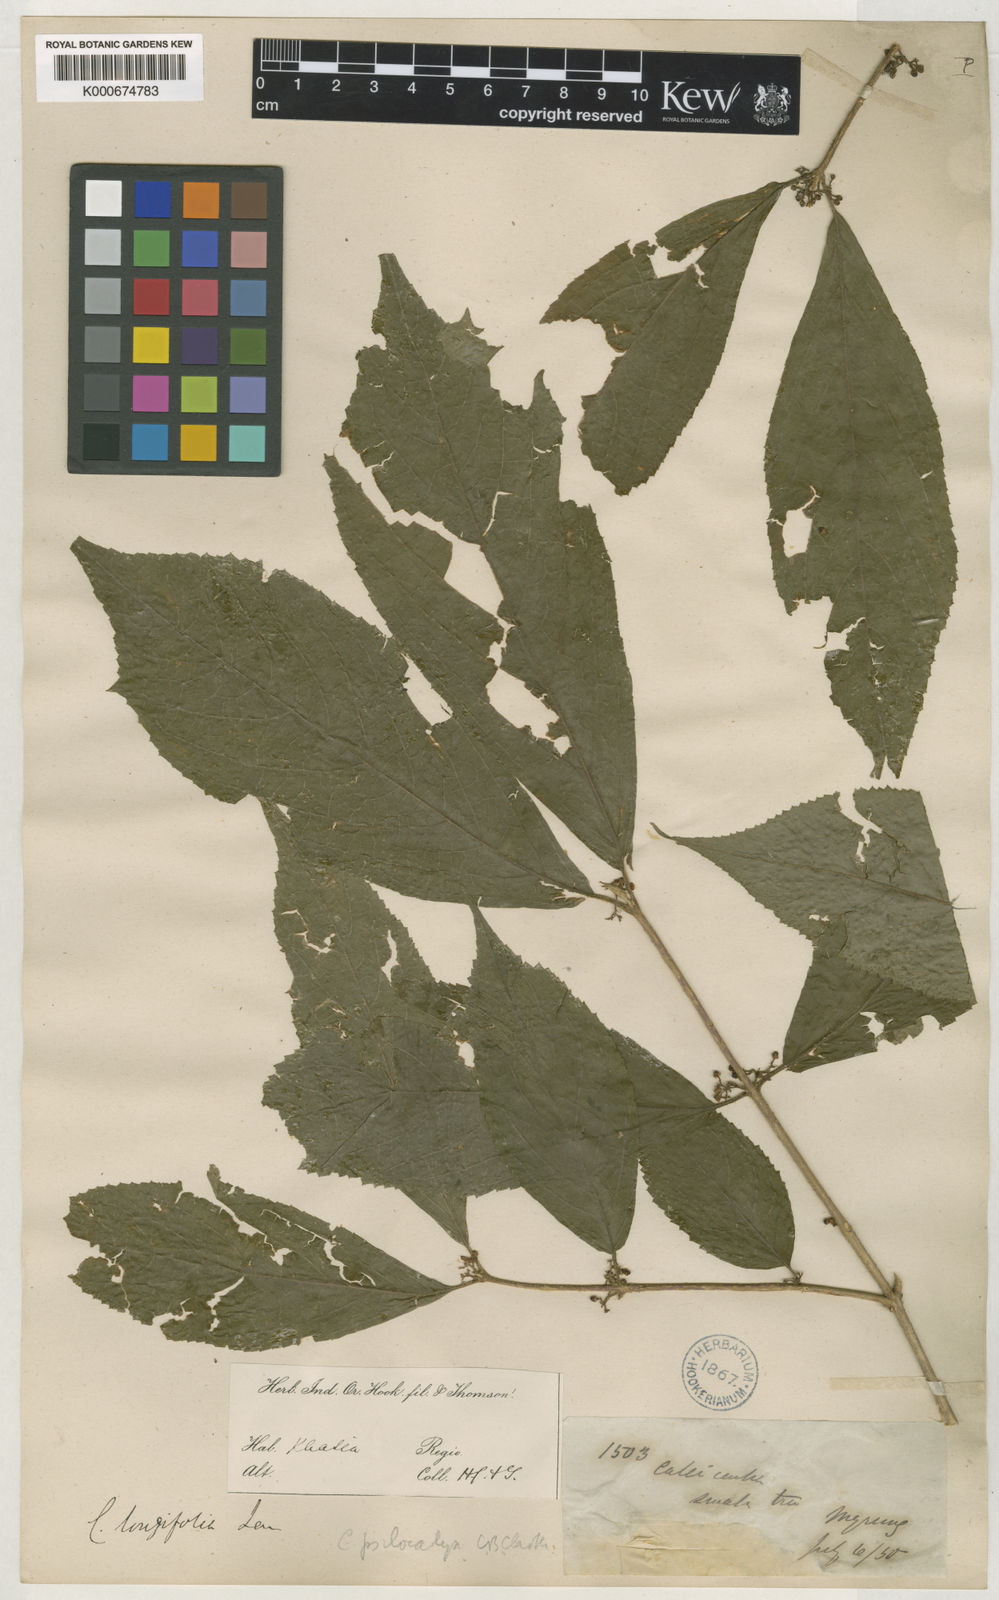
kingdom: Plantae
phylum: Tracheophyta
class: Magnoliopsida
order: Lamiales
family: Lamiaceae
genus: Callicarpa
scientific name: Callicarpa psilocalyx
